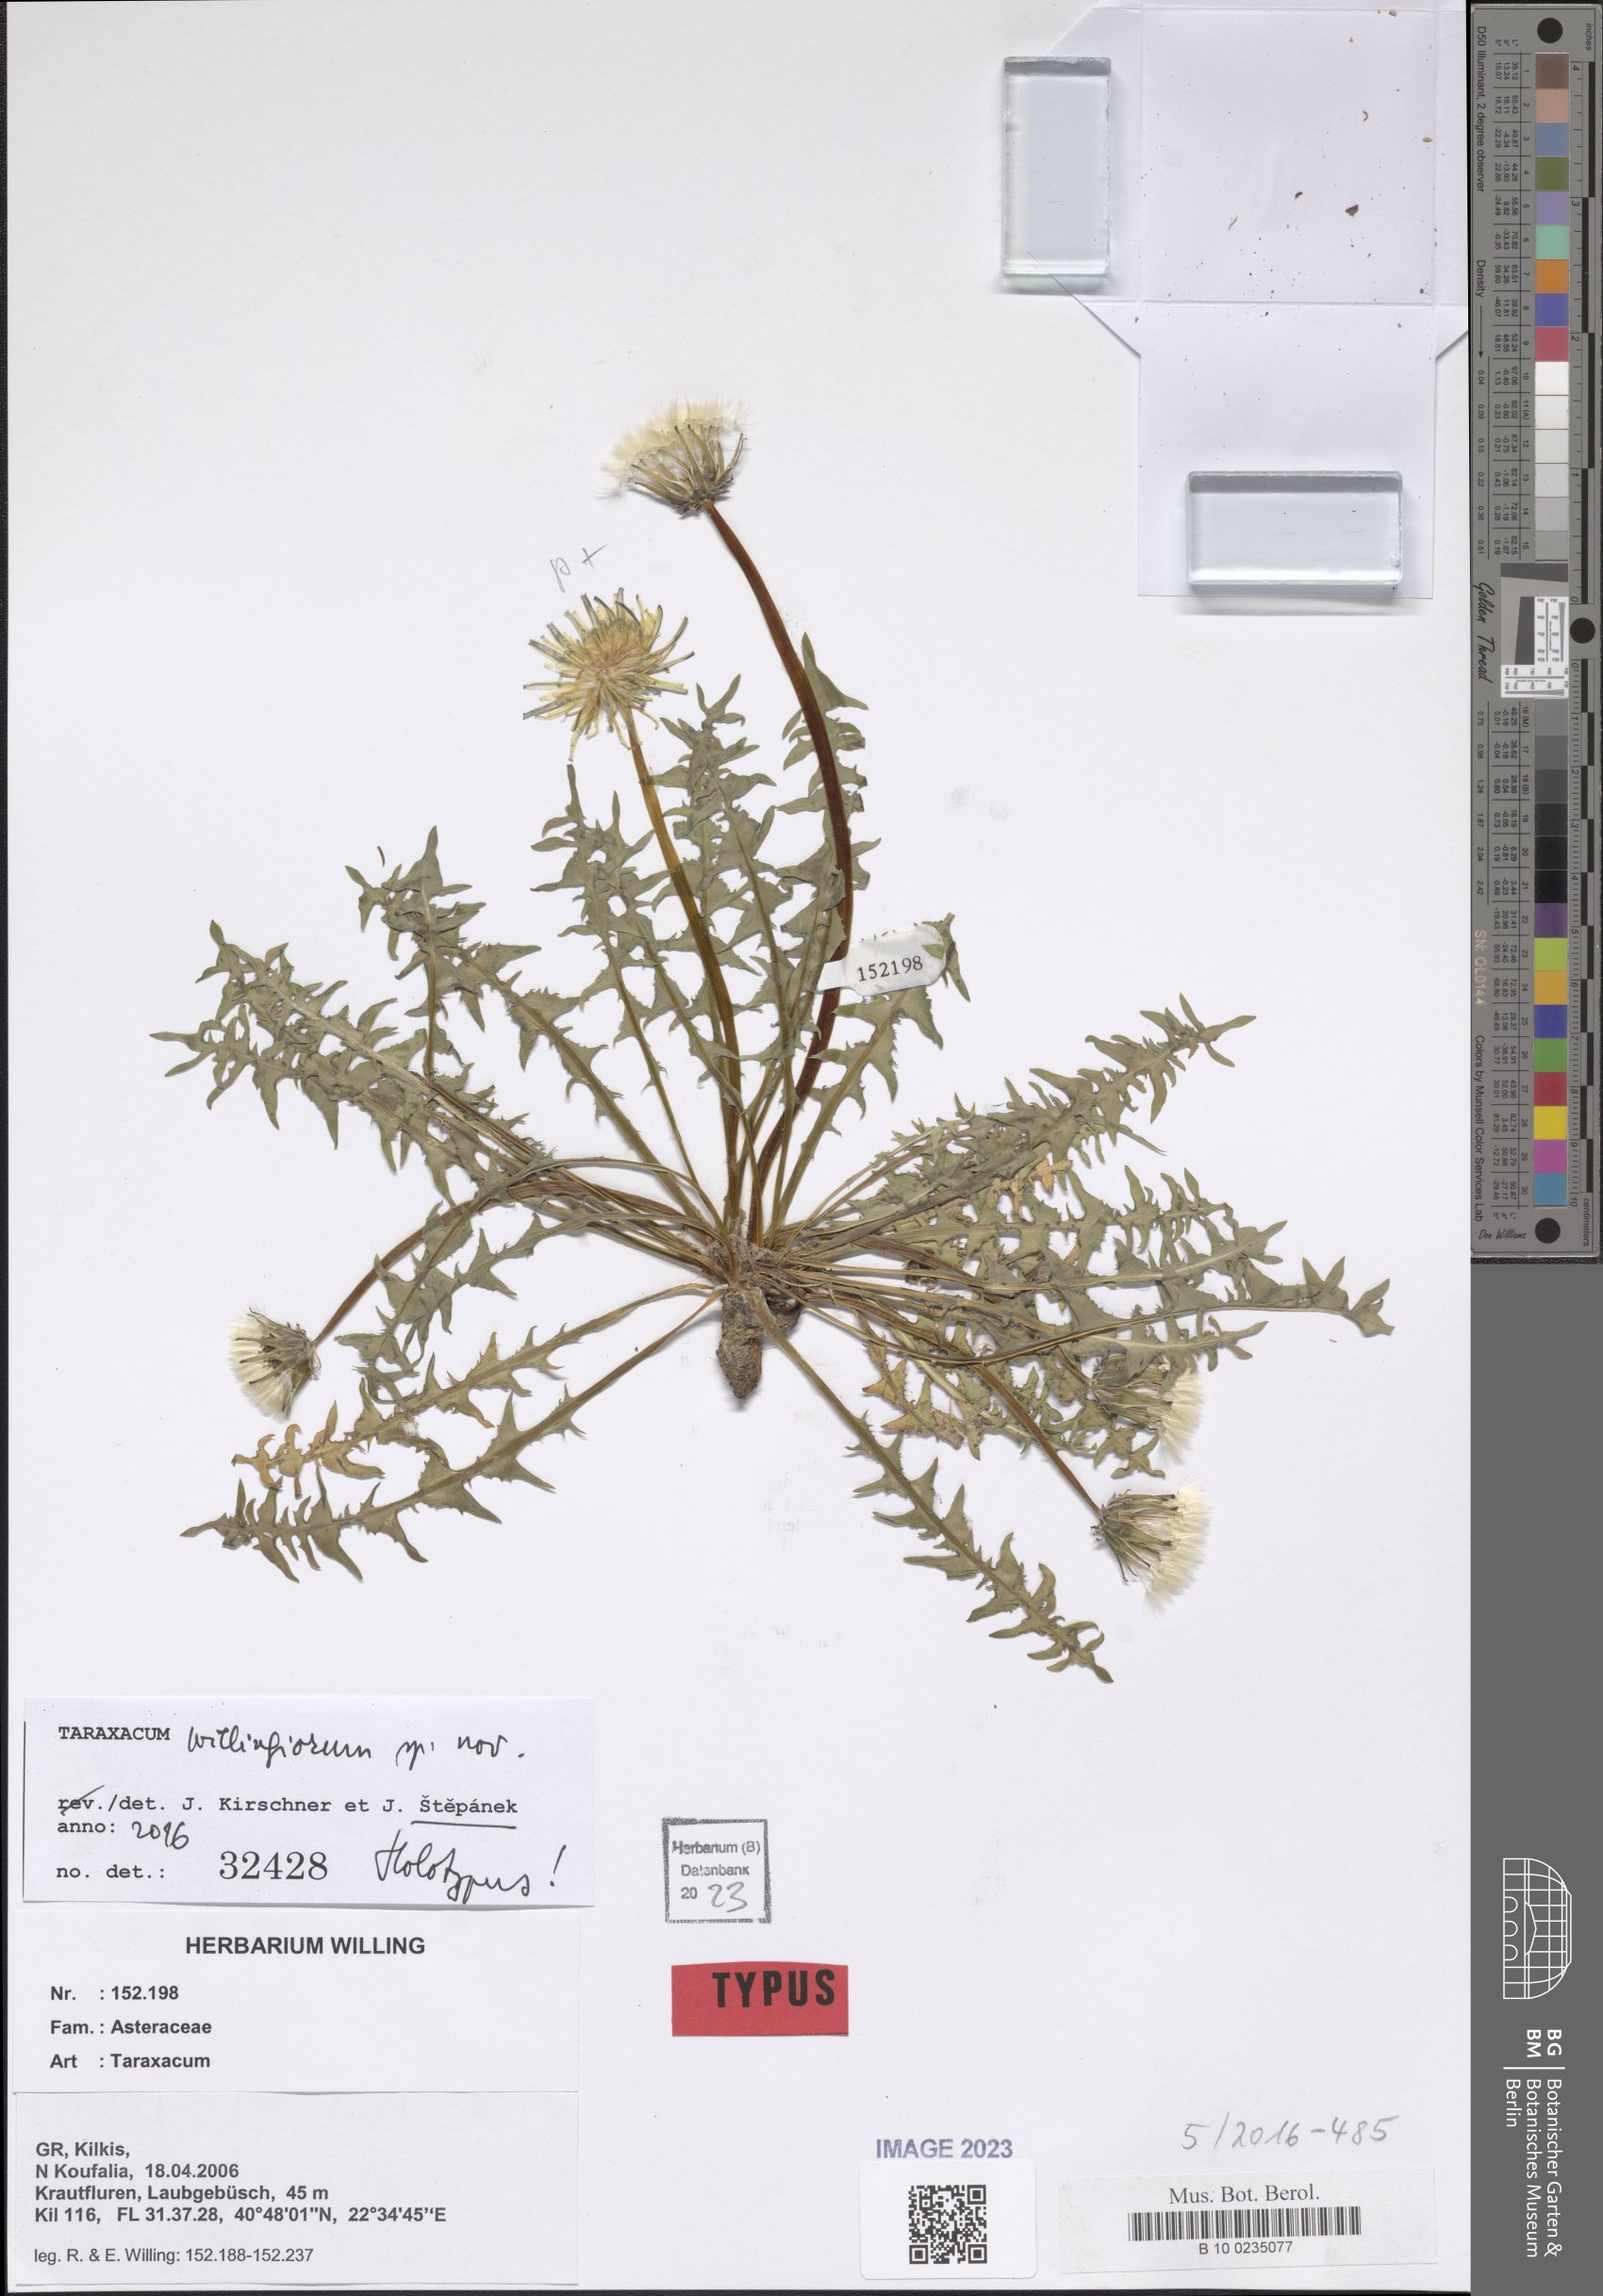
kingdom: Plantae
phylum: Tracheophyta
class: Magnoliopsida
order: Asterales
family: Asteraceae
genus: Taraxacum
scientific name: Taraxacum
